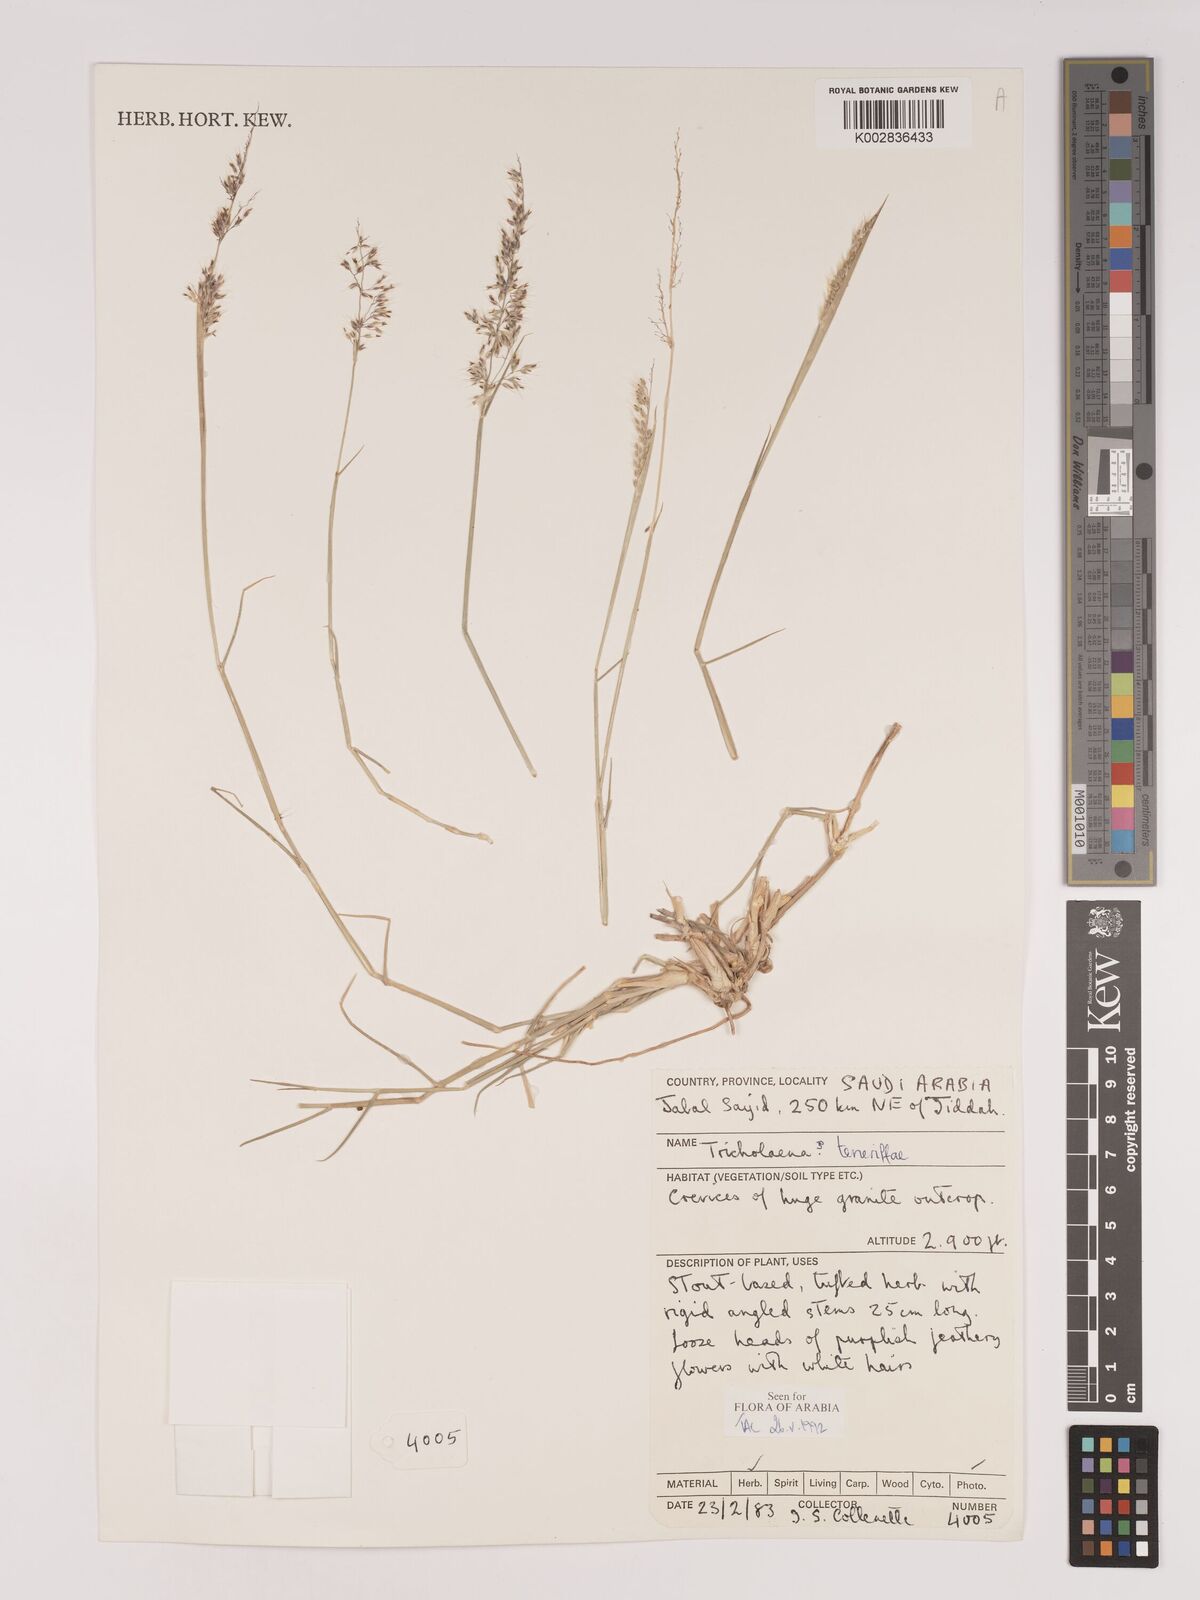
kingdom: Plantae
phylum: Tracheophyta
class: Liliopsida
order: Poales
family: Poaceae
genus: Tricholaena
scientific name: Tricholaena teneriffae
